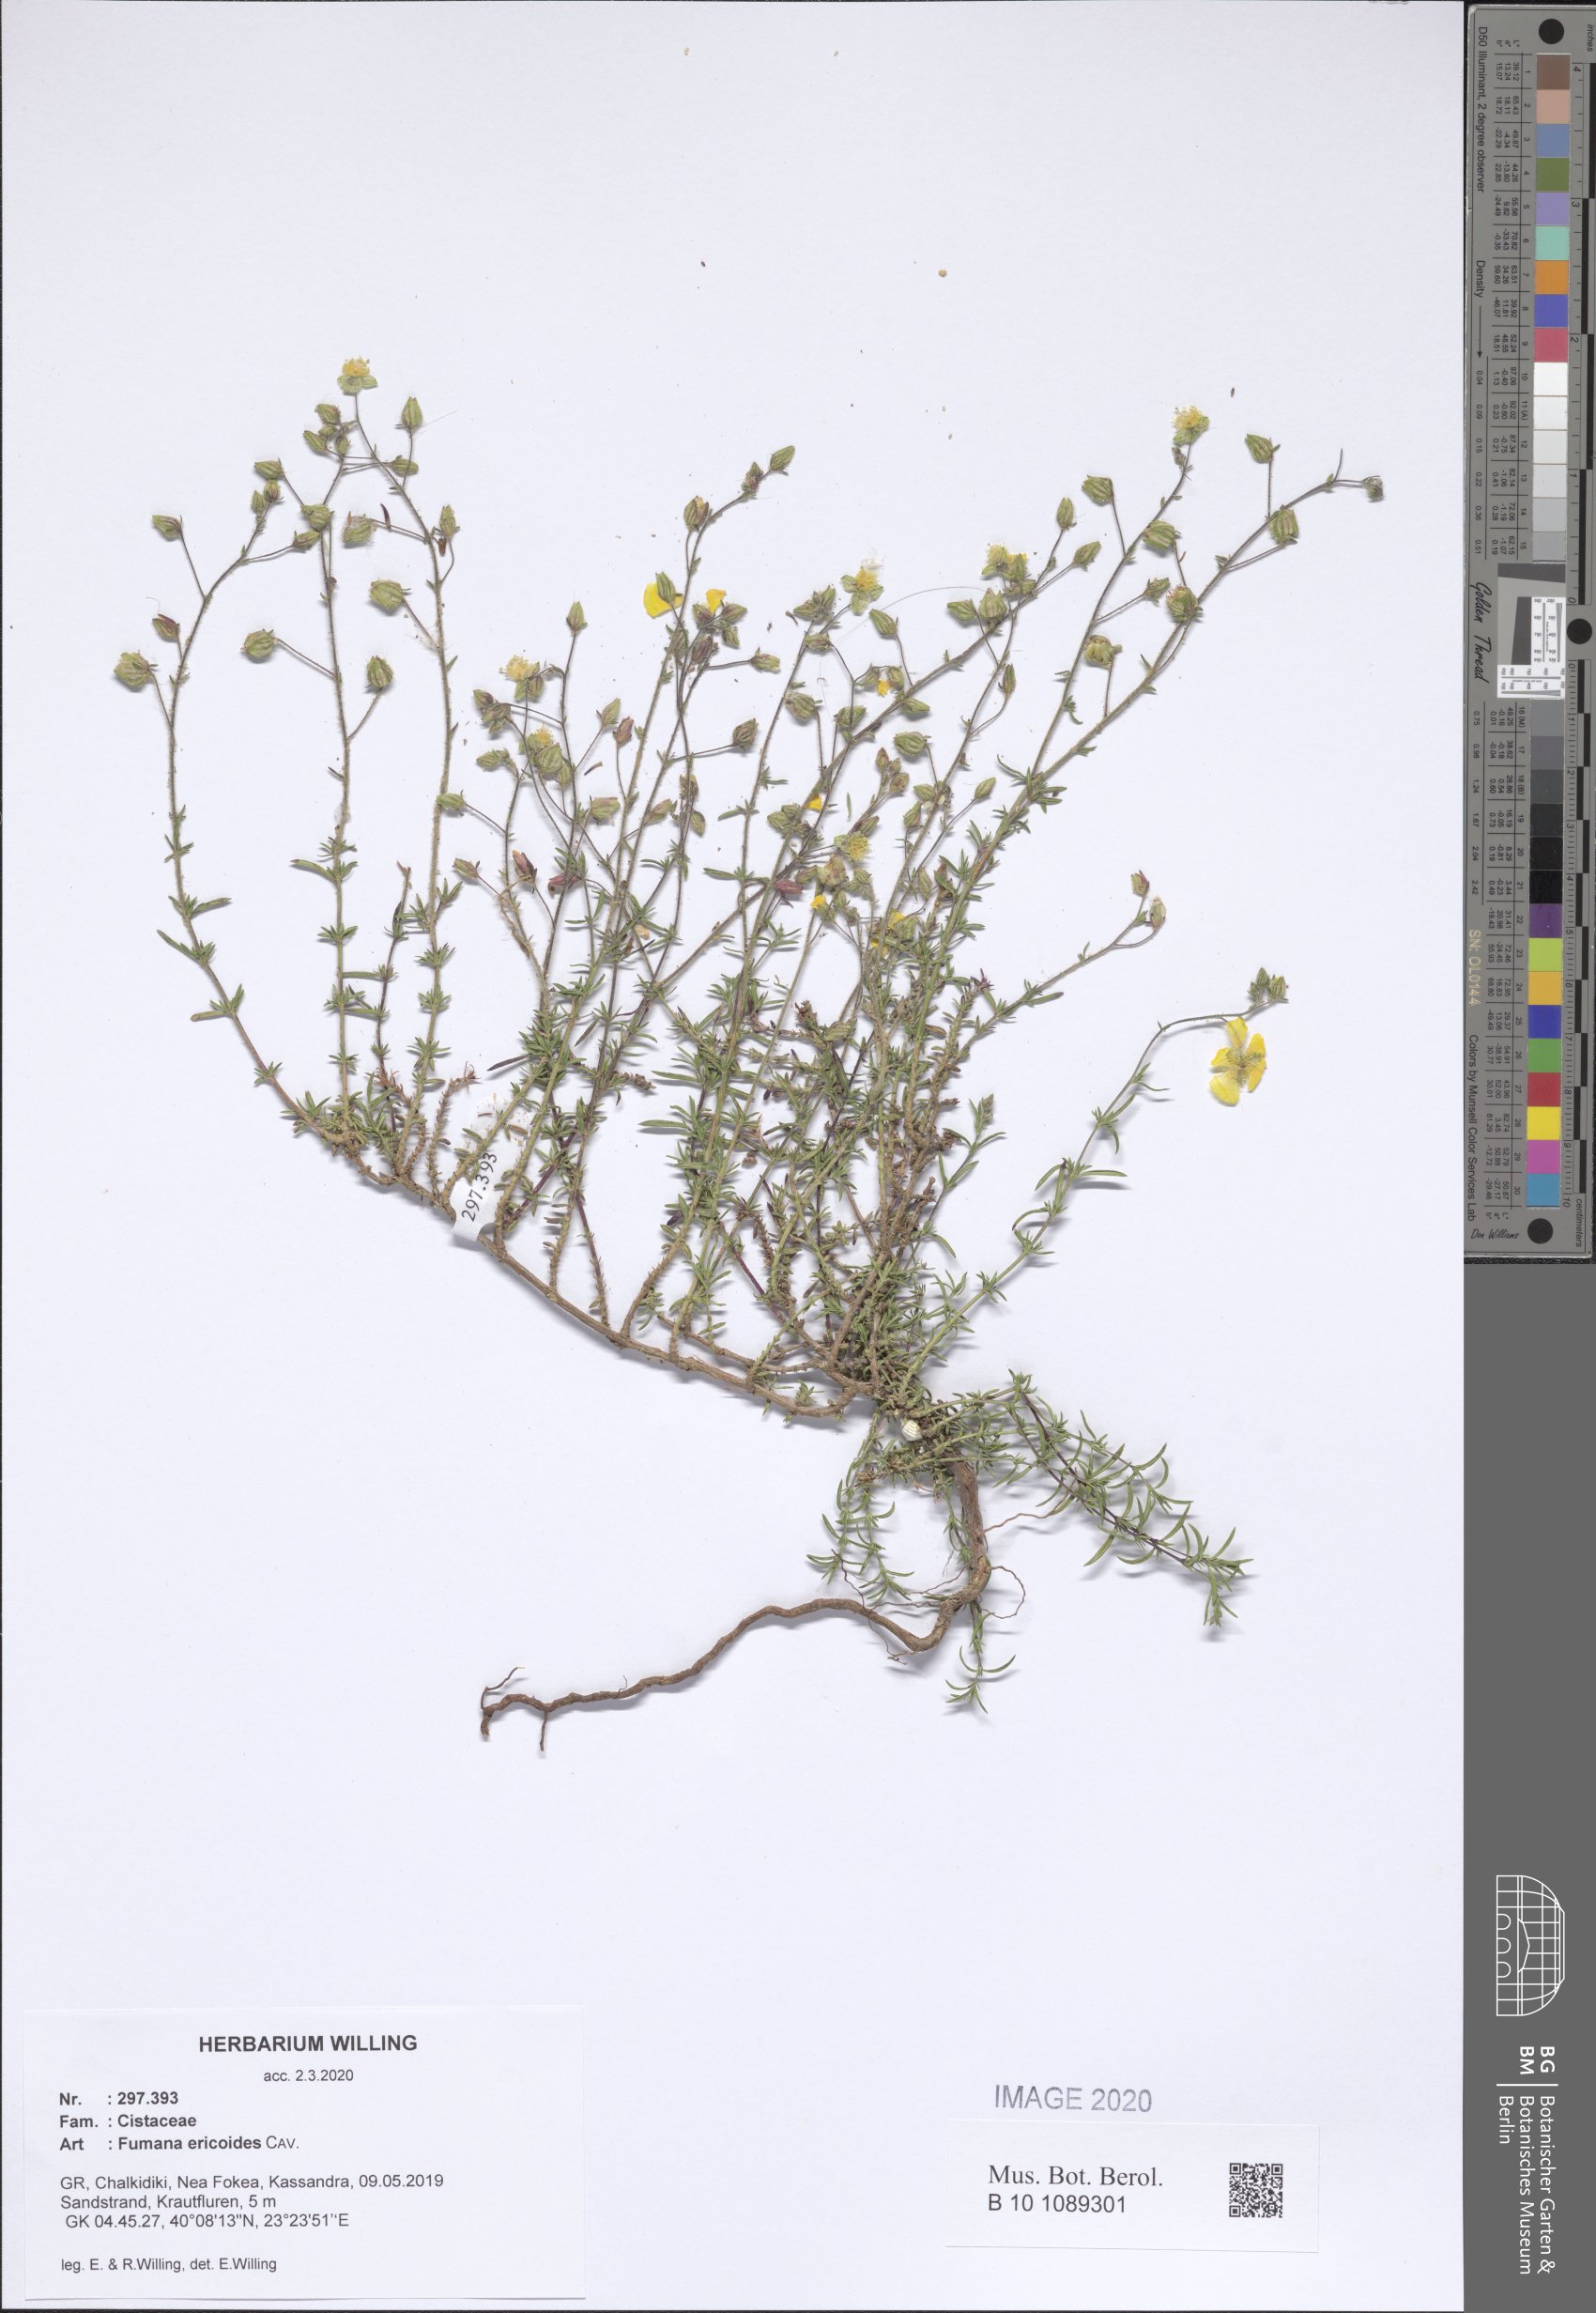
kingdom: Plantae
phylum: Tracheophyta
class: Magnoliopsida
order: Malvales
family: Cistaceae
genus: Fumana
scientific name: Fumana ericoides
